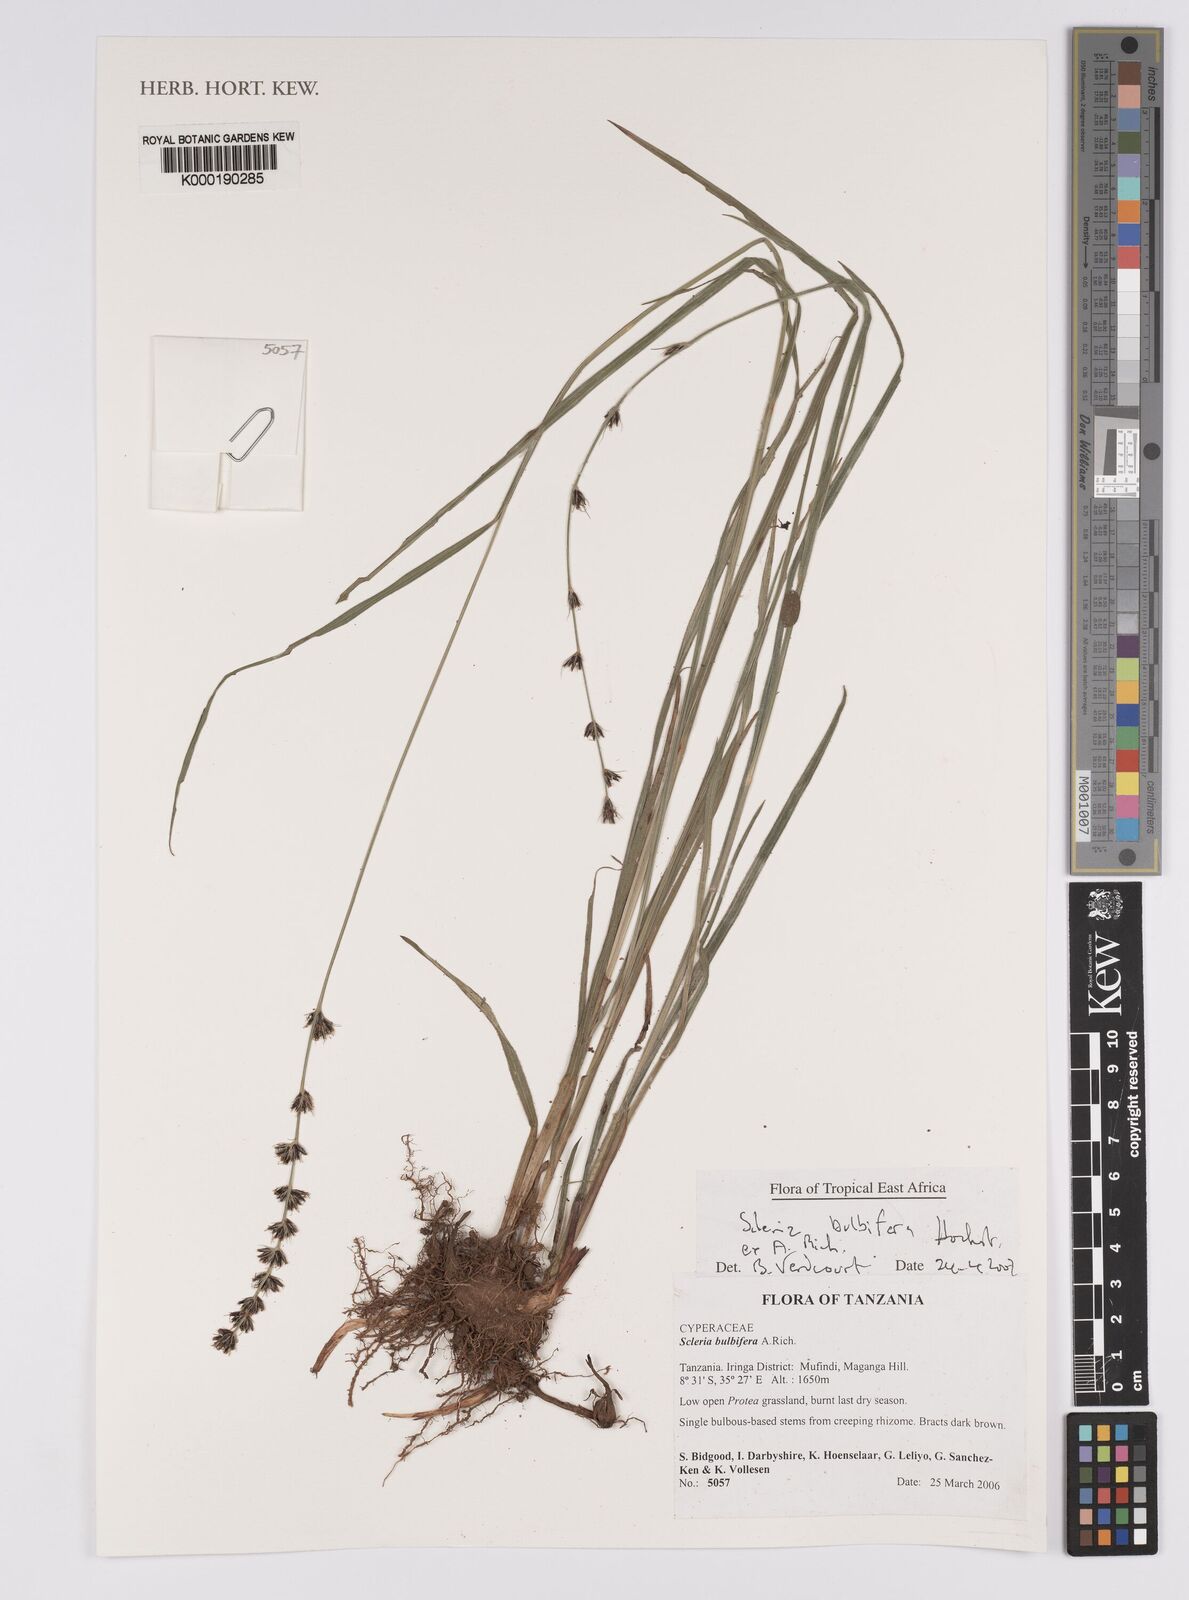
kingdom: Plantae
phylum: Tracheophyta
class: Liliopsida
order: Poales
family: Cyperaceae
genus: Scleria
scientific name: Scleria bulbifera
